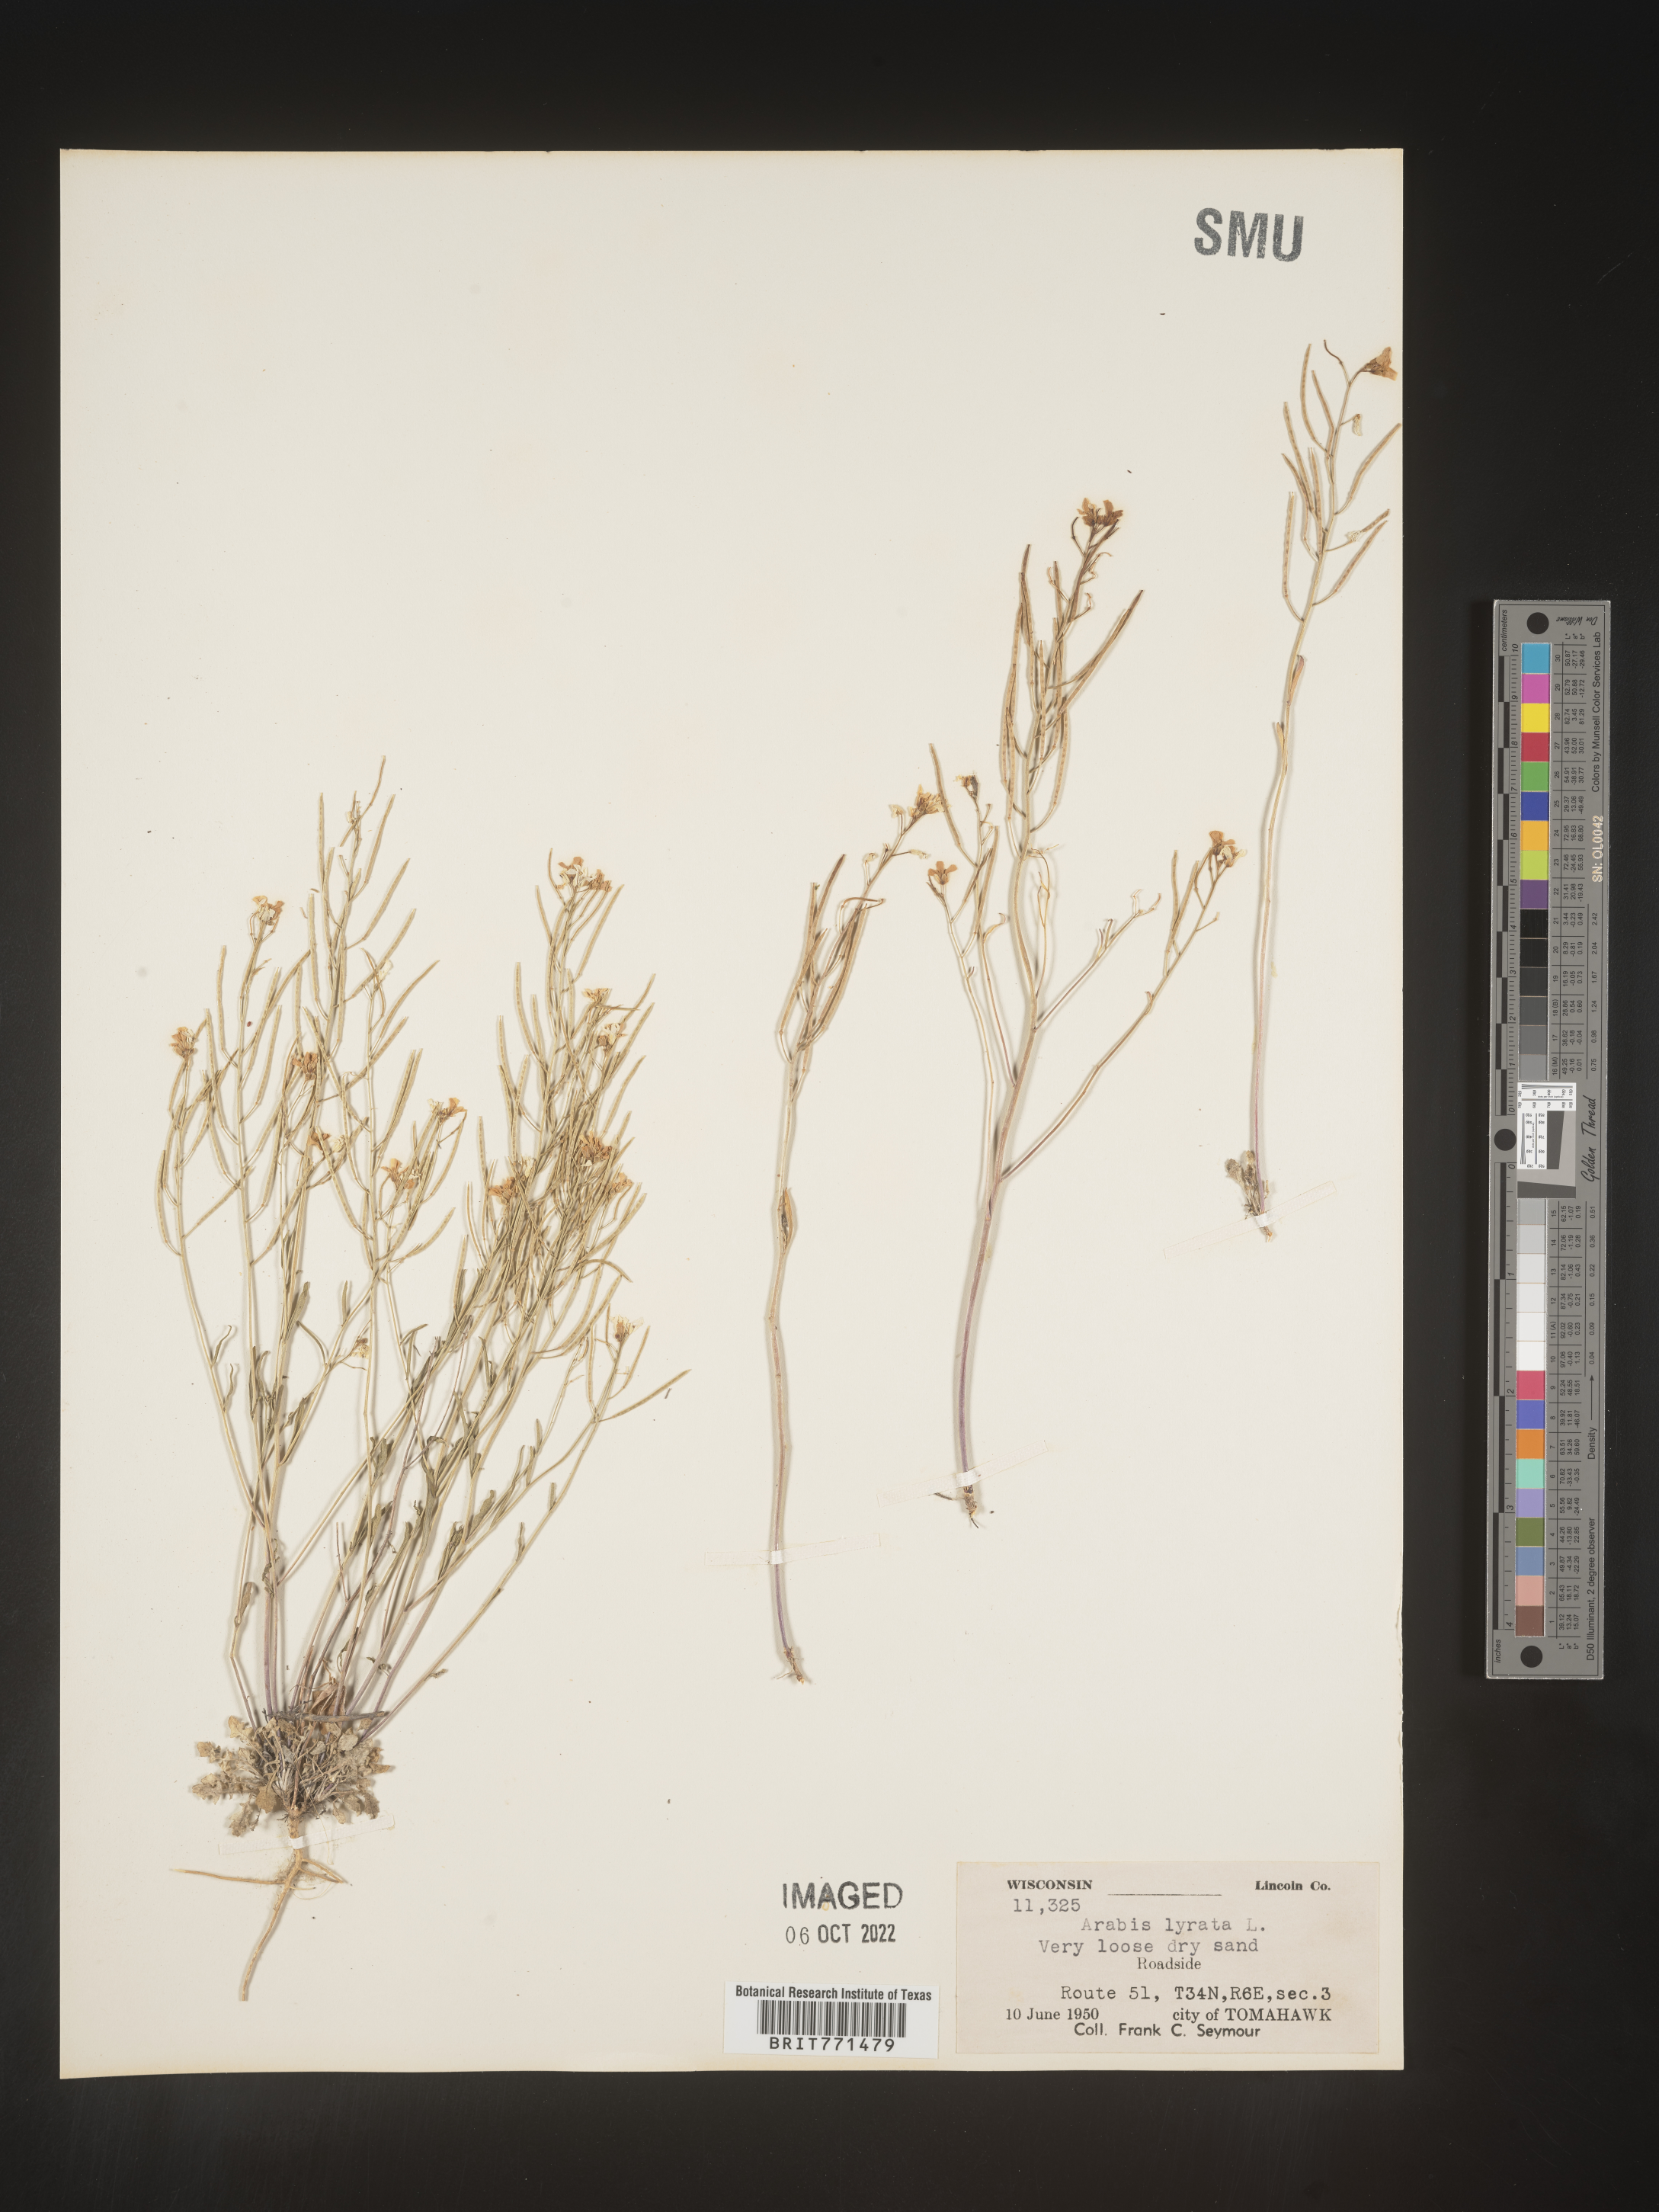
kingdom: Plantae
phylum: Tracheophyta
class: Magnoliopsida
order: Brassicales
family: Brassicaceae
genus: Arabidopsis
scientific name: Arabidopsis lyrata
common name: Lyrate rockcress
